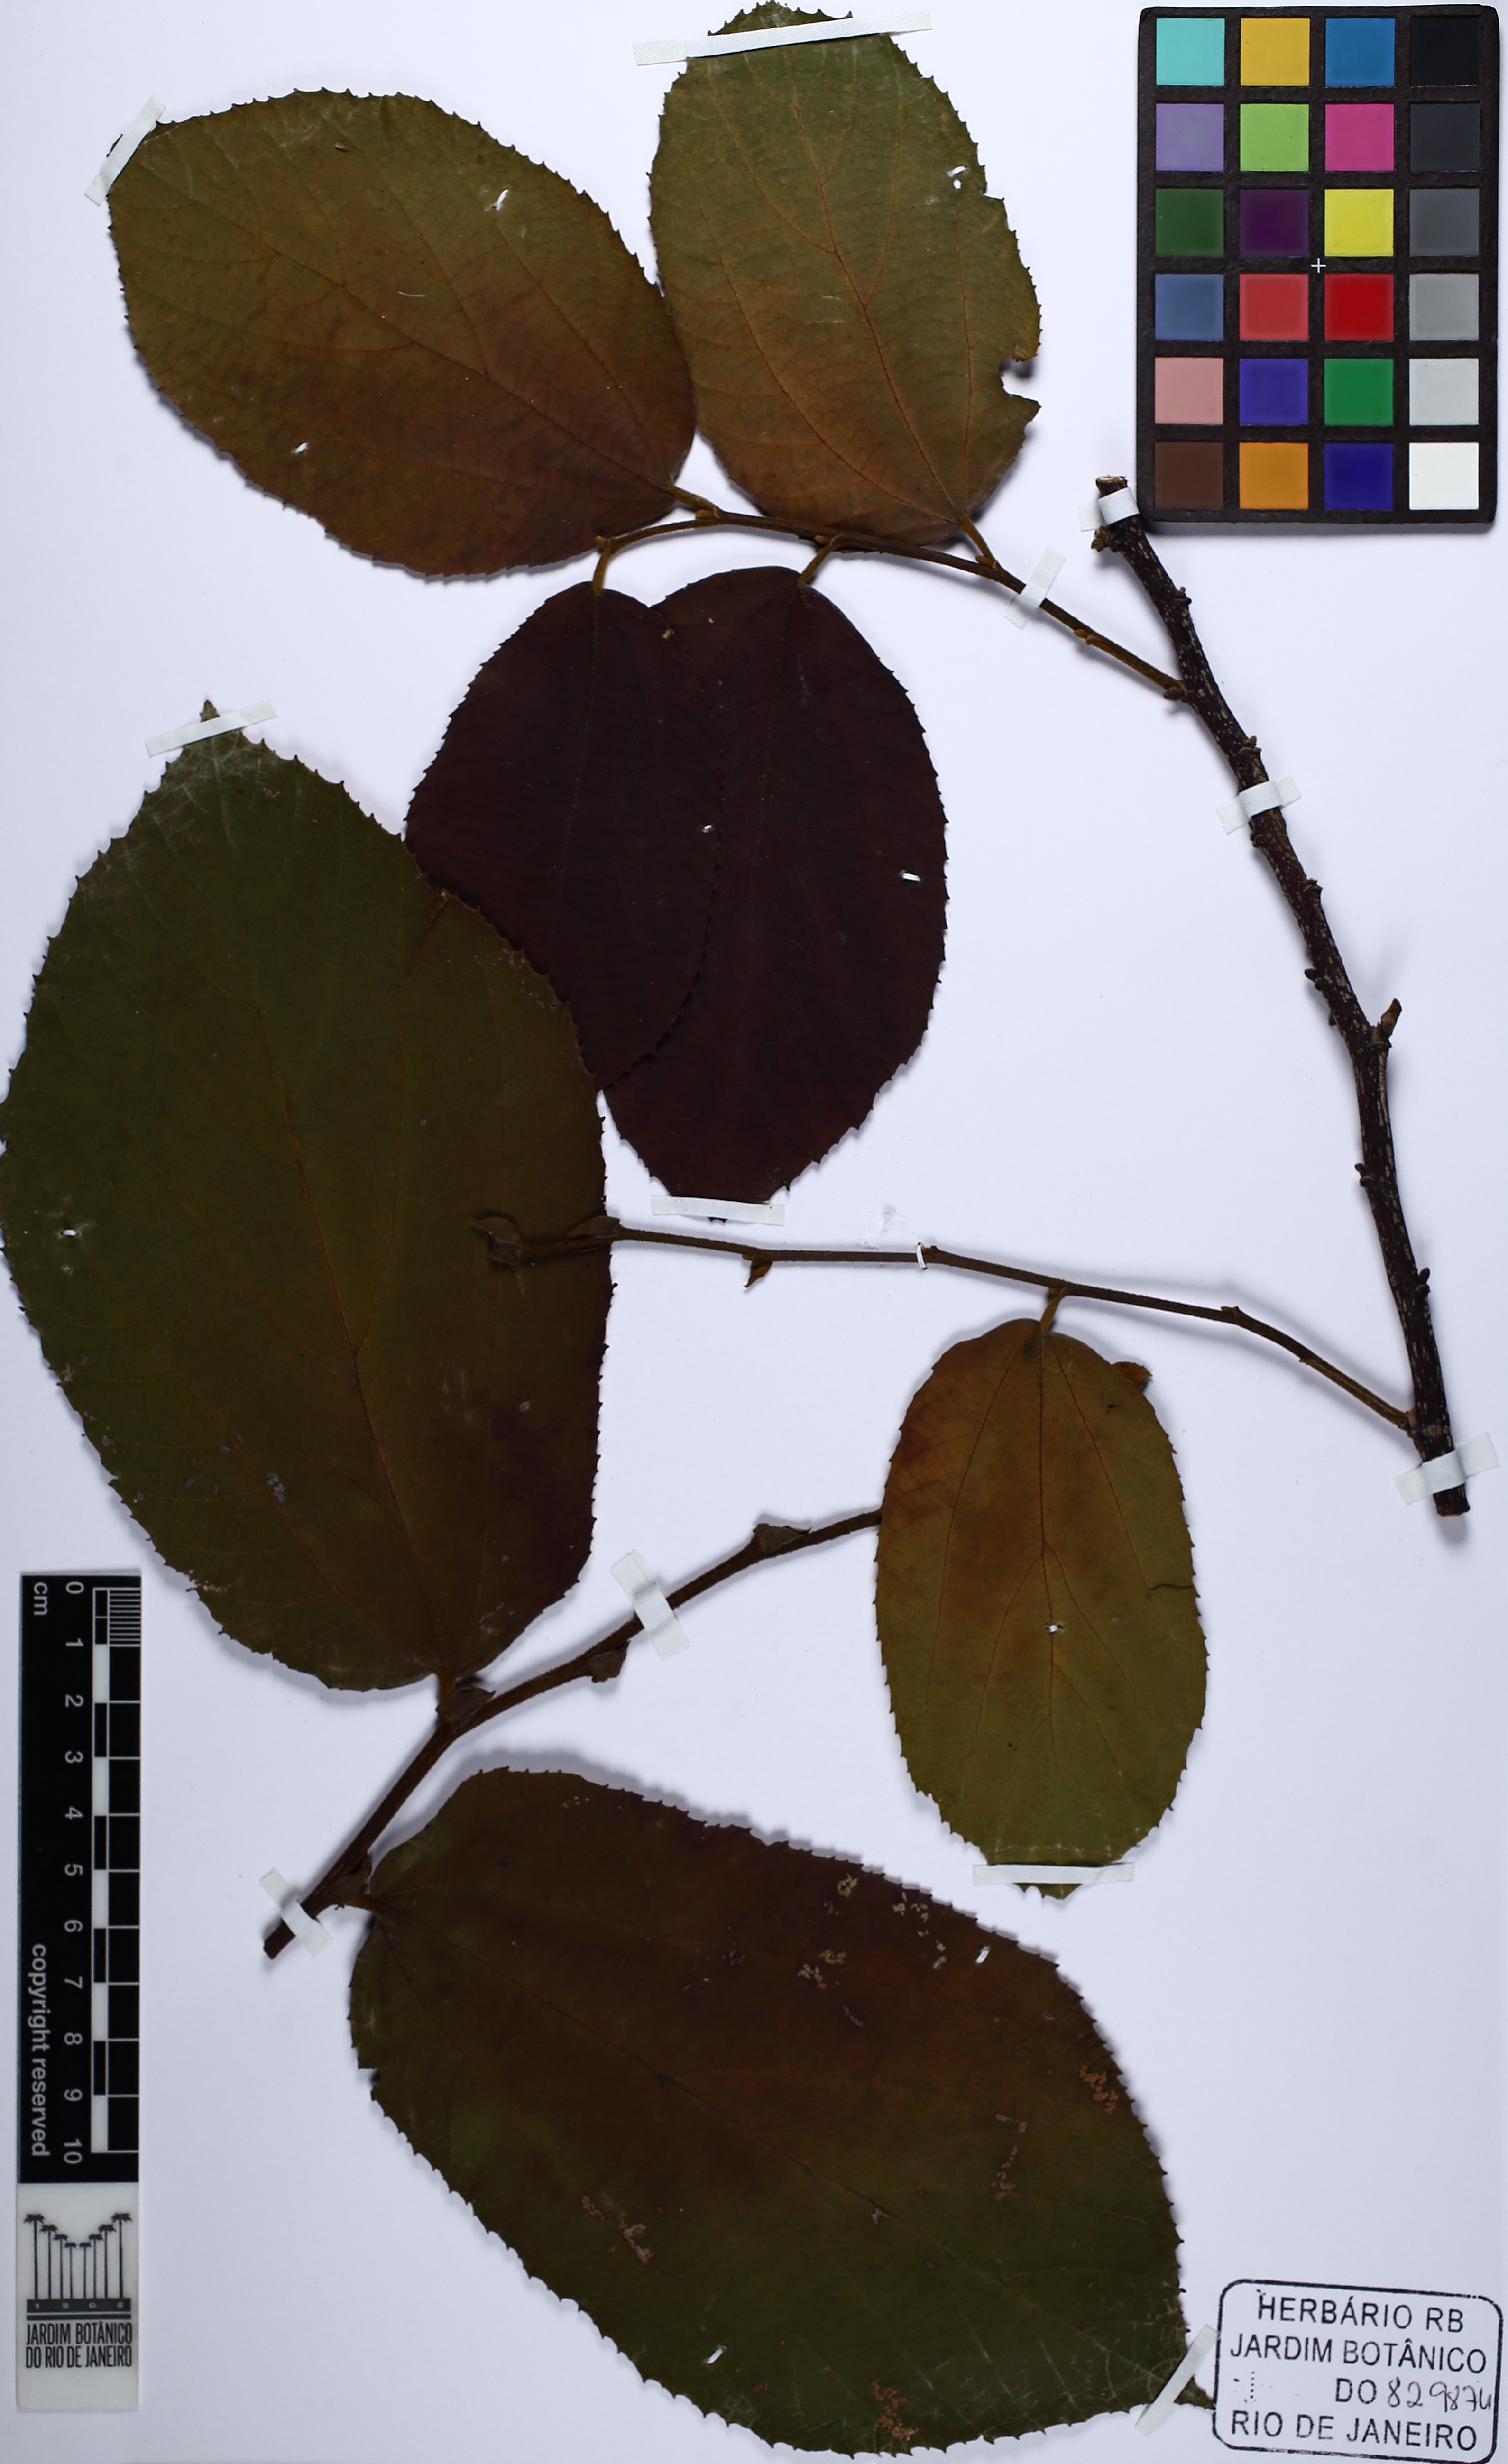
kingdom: Plantae
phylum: Tracheophyta
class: Magnoliopsida
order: Malvales
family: Malvaceae
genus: Luehea
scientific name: Luehea speciosa
